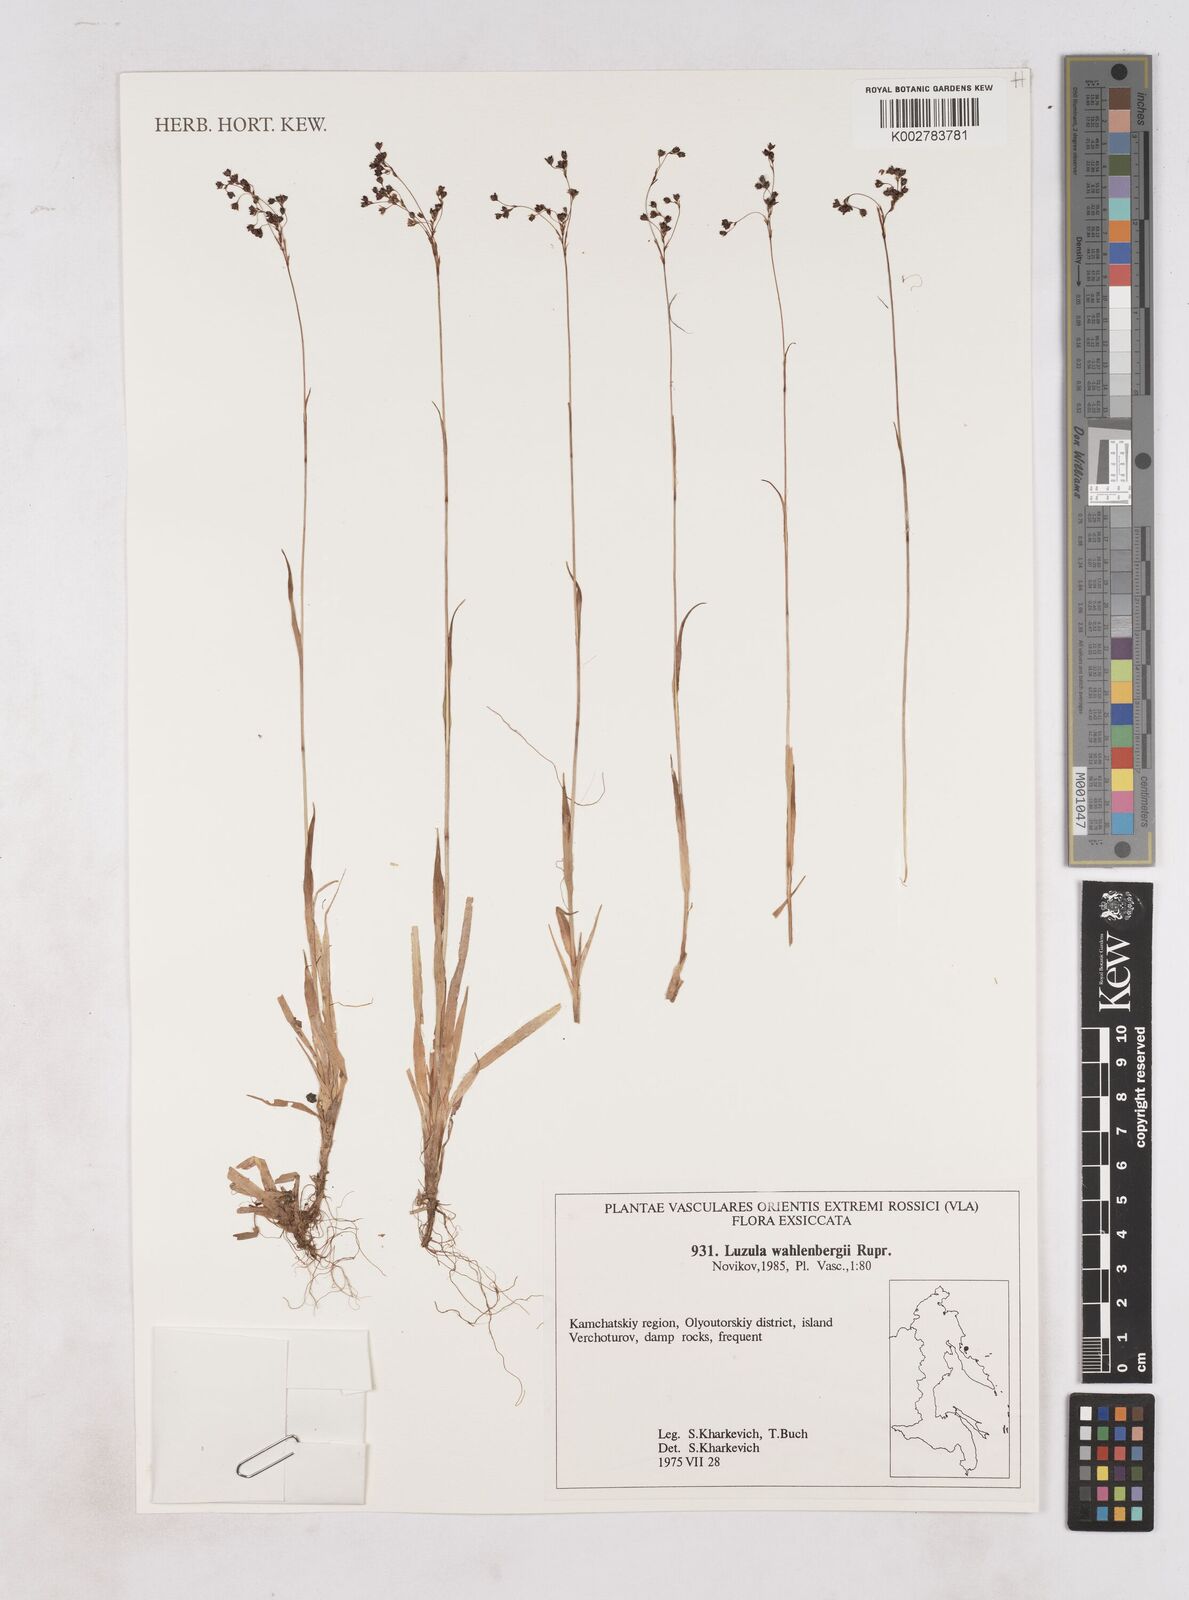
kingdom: Plantae
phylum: Tracheophyta
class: Liliopsida
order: Poales
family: Juncaceae
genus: Luzula
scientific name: Luzula wahlenbergii
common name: Wahlenberg's wood-rush
